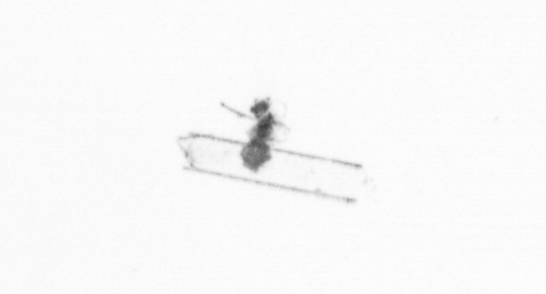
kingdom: Chromista
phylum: Ochrophyta
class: Bacillariophyceae
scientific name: Bacillariophyceae
